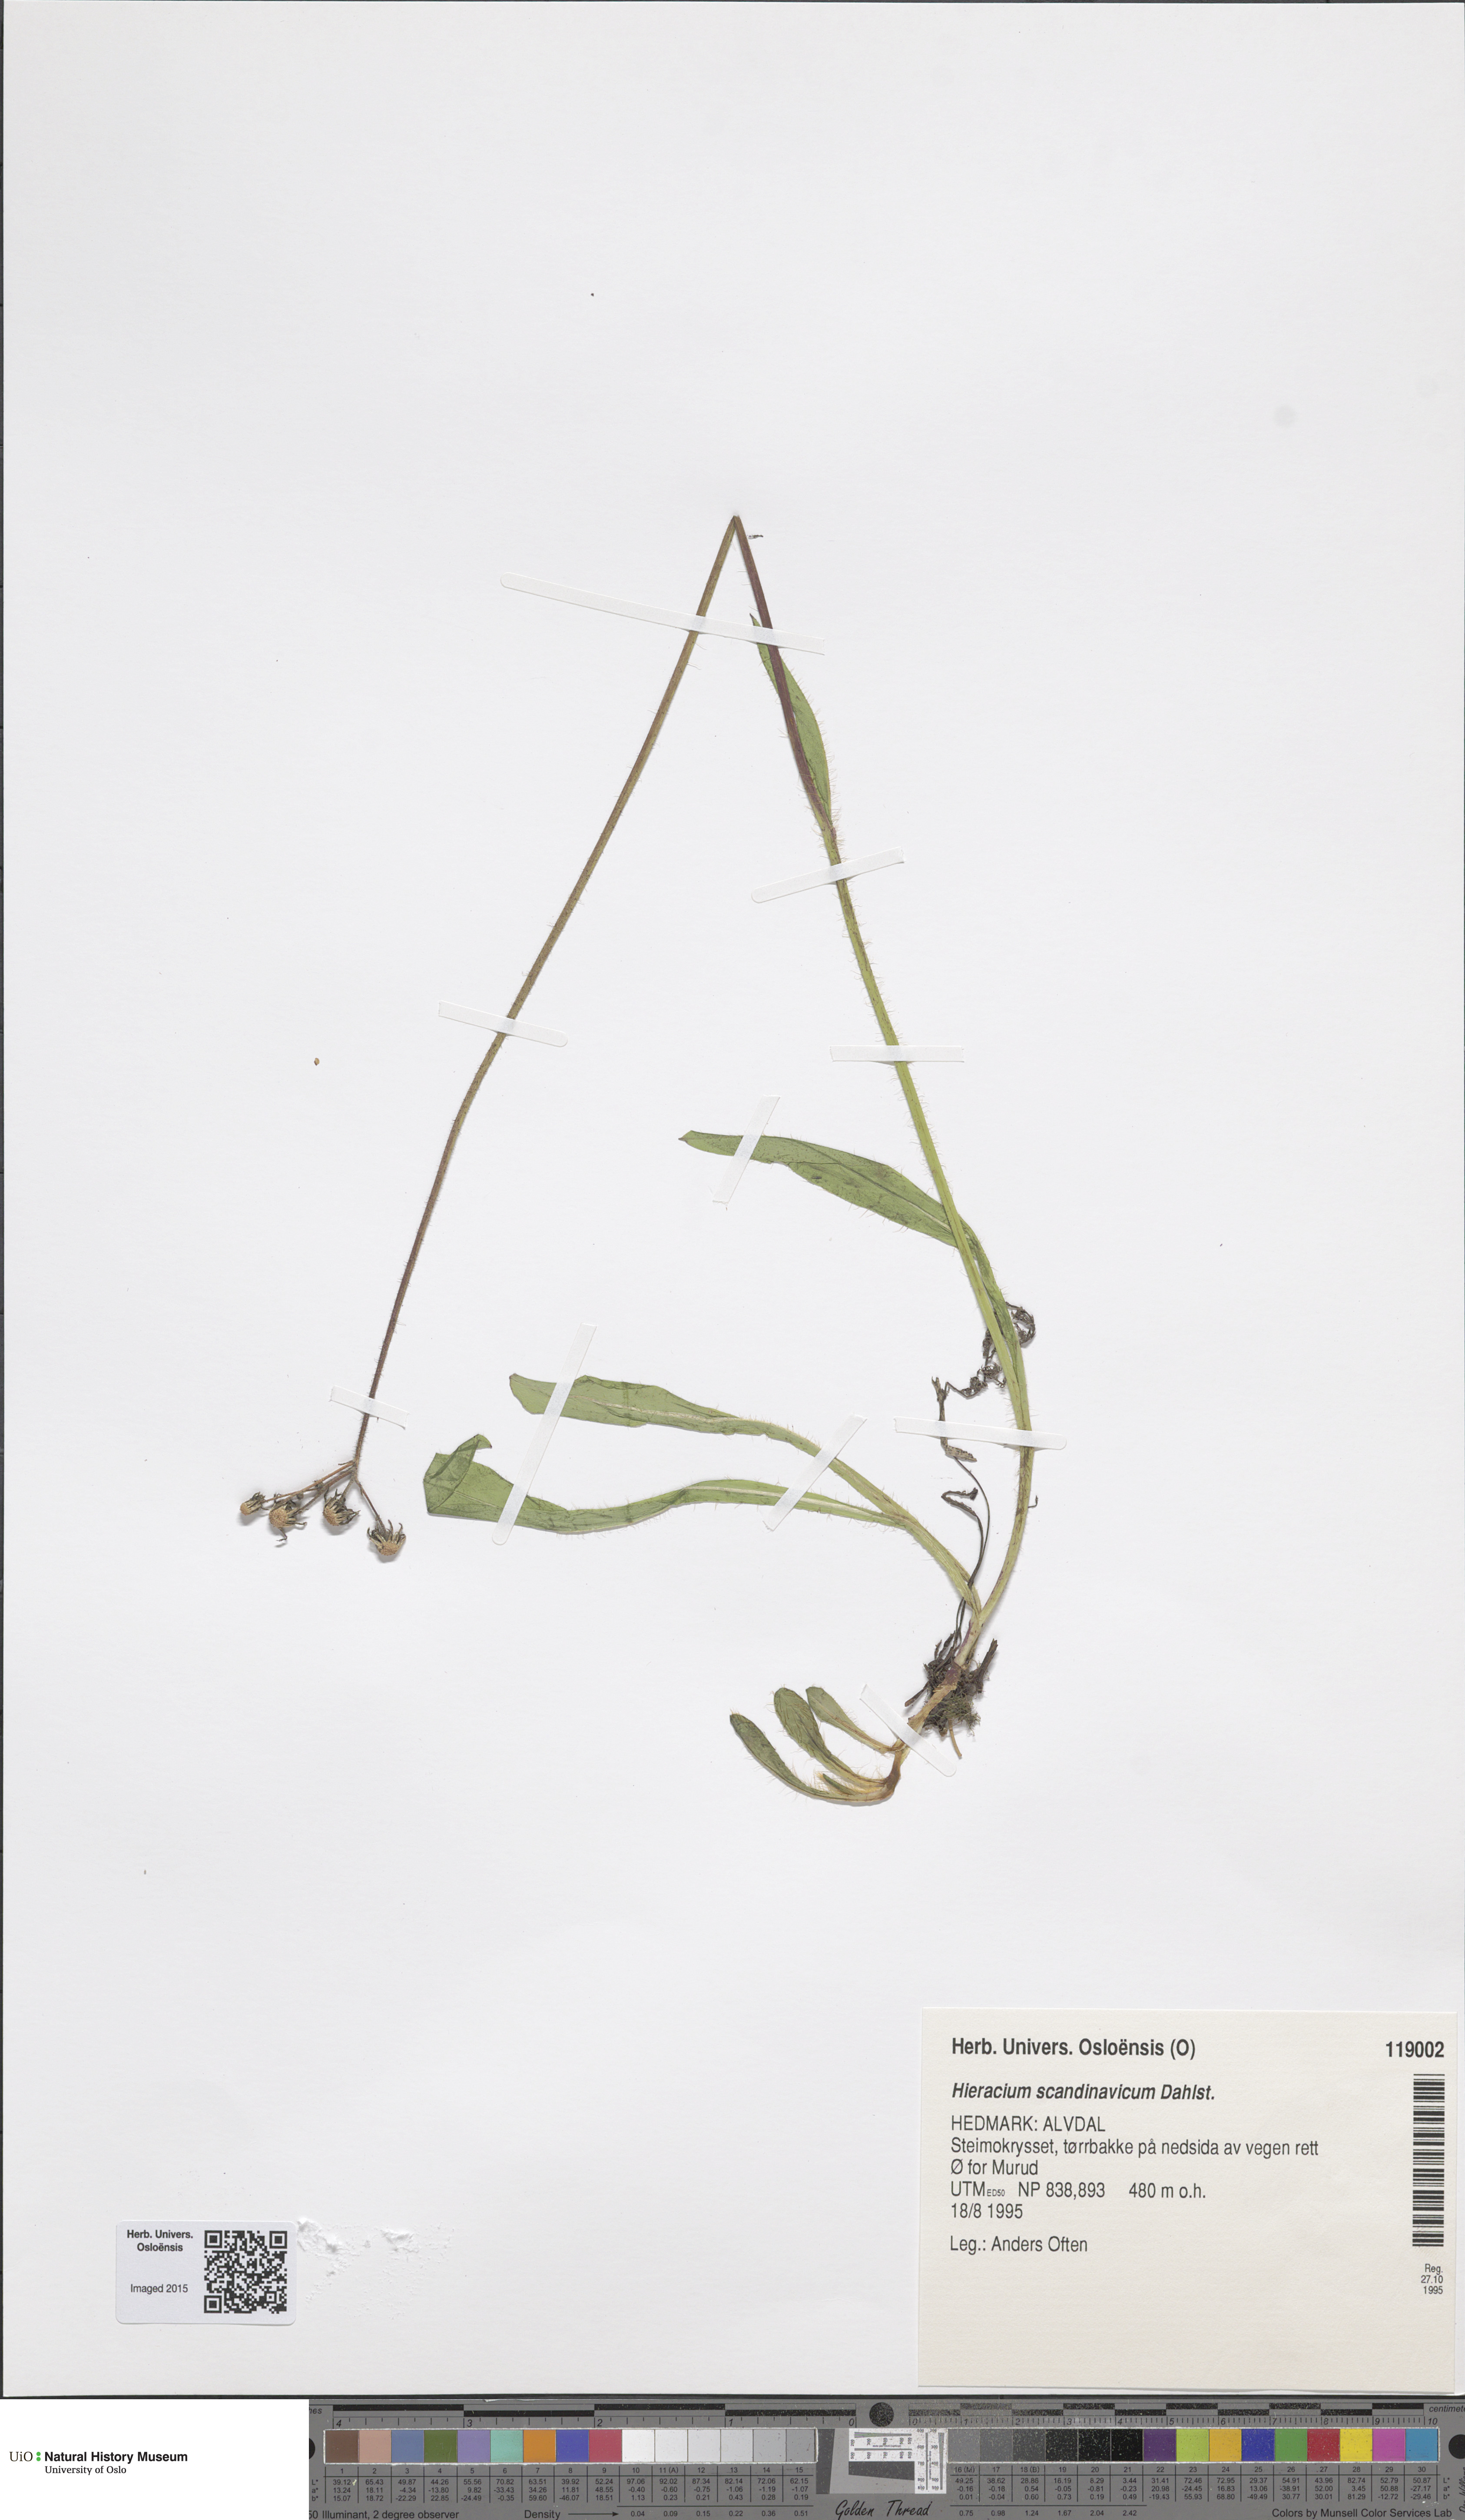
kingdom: Plantae
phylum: Tracheophyta
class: Magnoliopsida
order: Asterales
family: Asteraceae
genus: Pilosella
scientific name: Pilosella scandinavica
